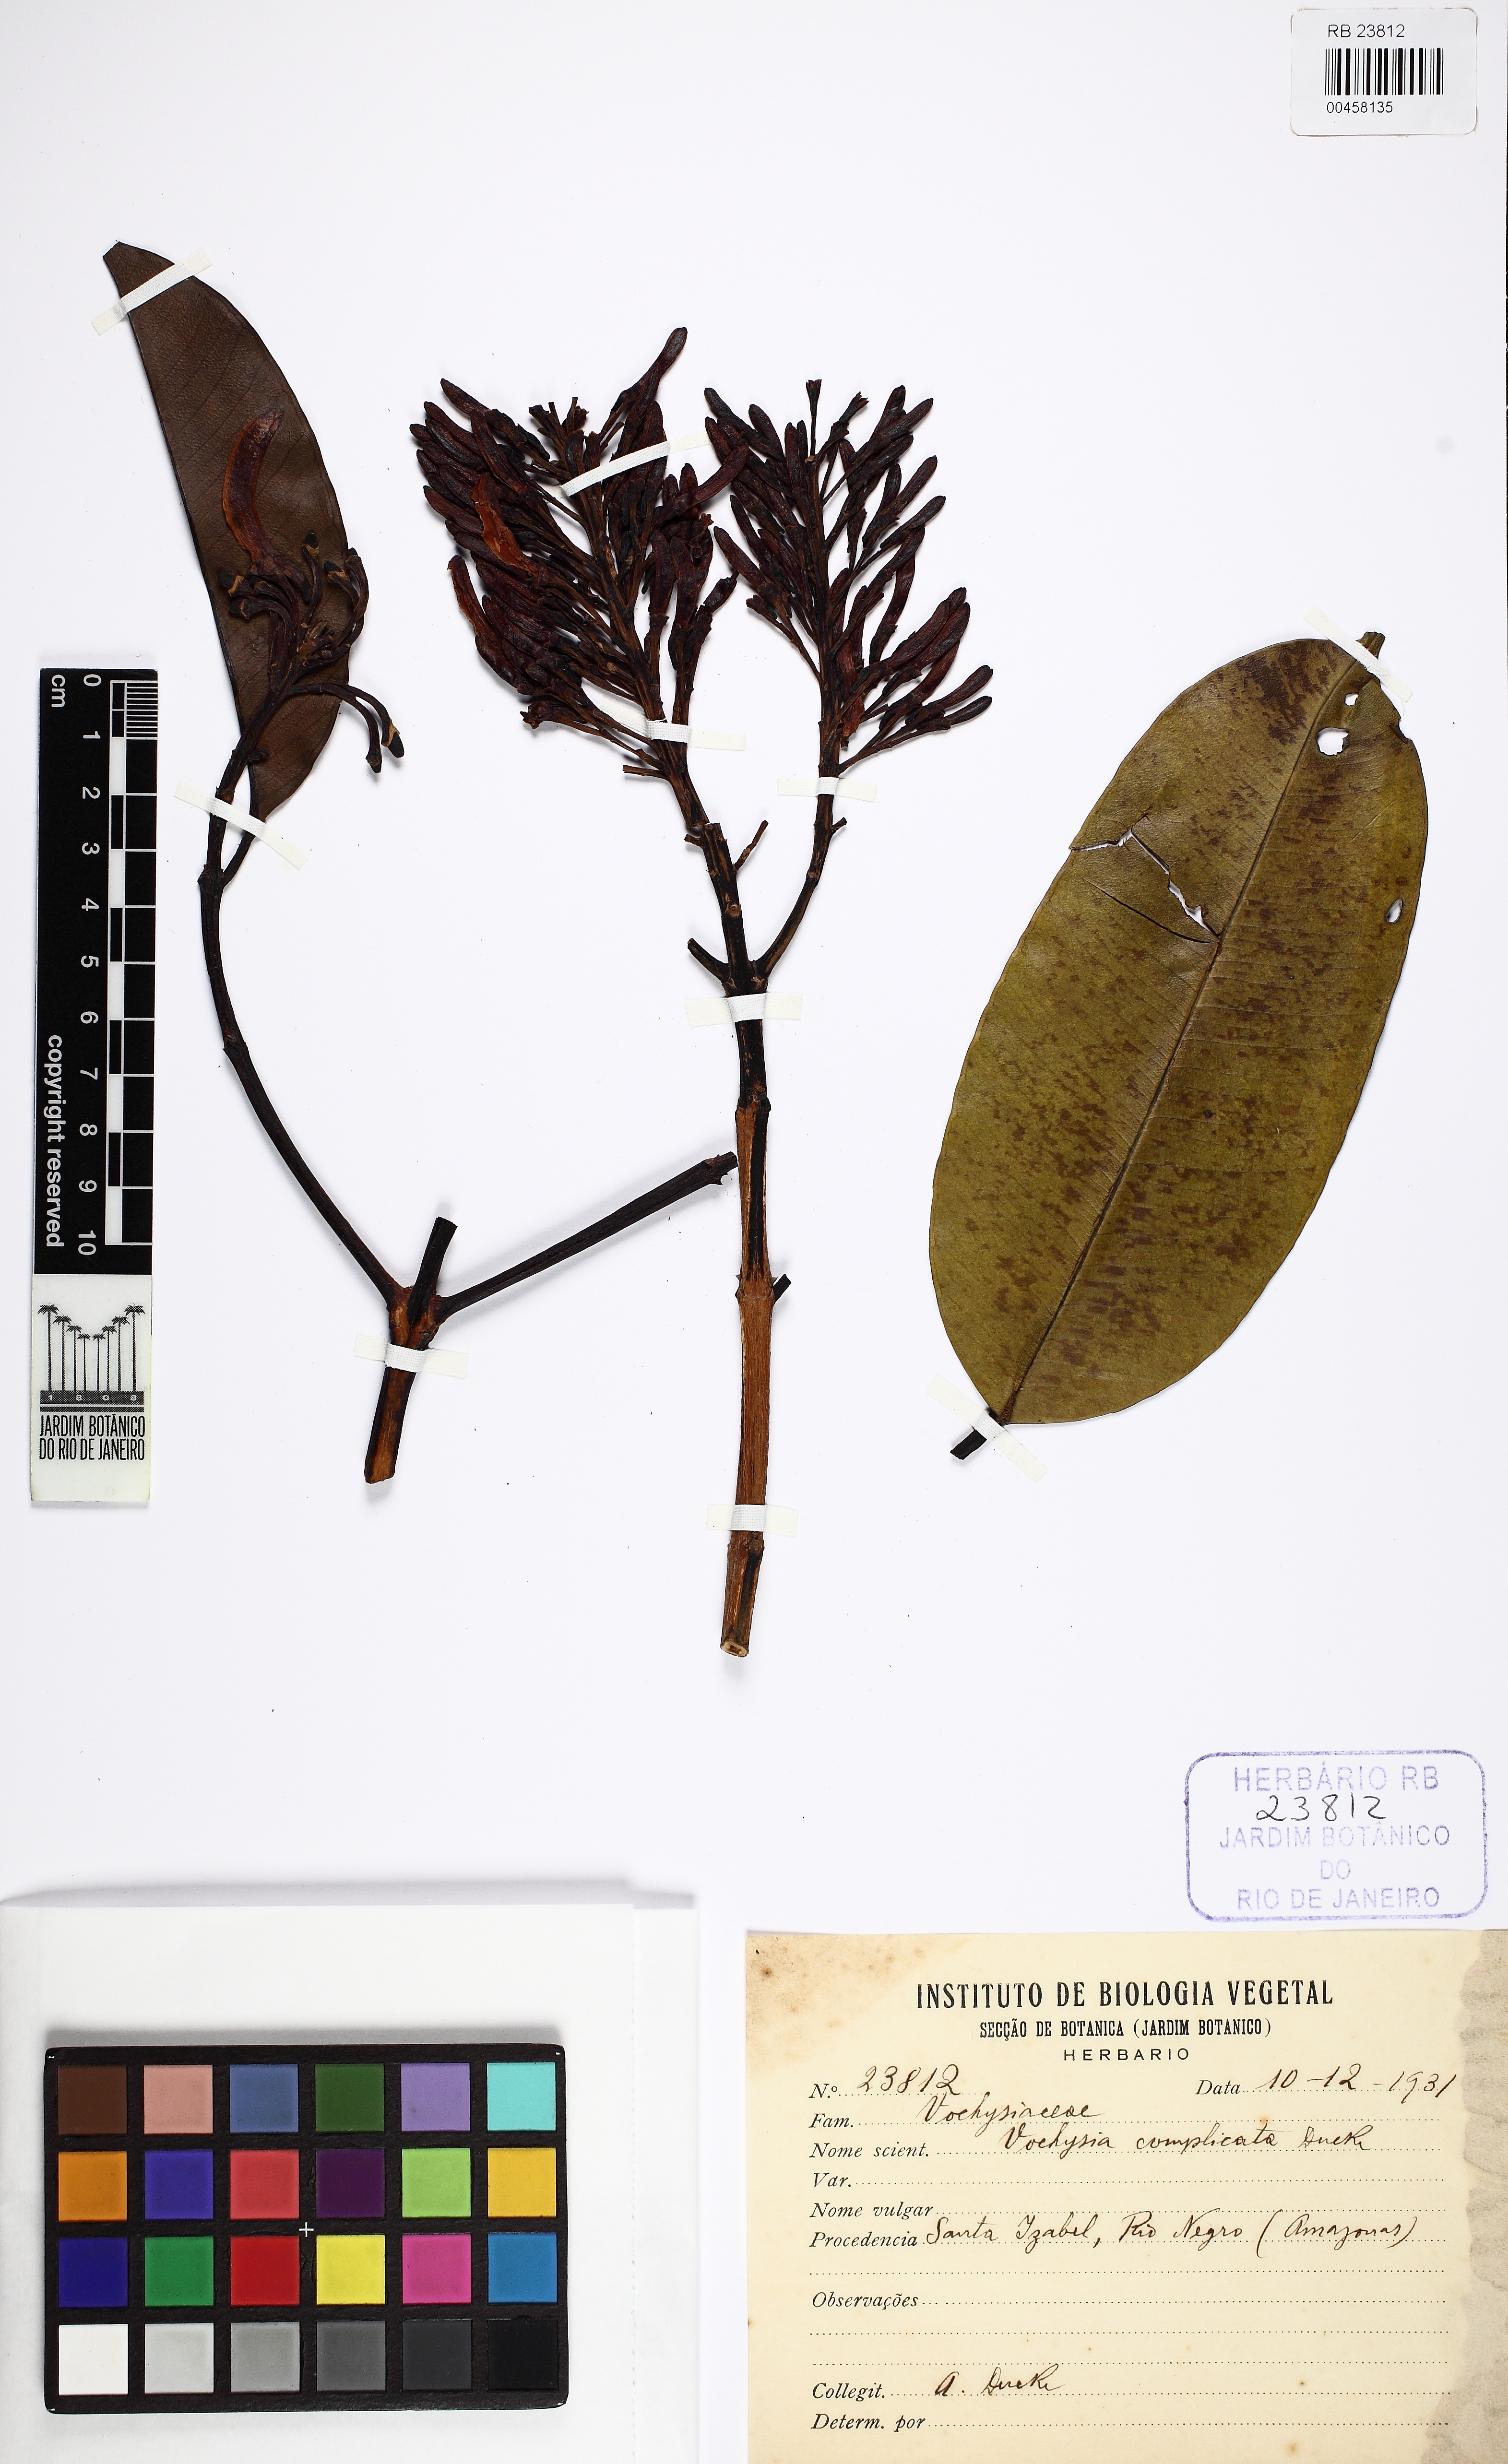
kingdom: Plantae
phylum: Tracheophyta
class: Magnoliopsida
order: Myrtales
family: Vochysiaceae
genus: Vochysia
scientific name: Vochysia complicata
